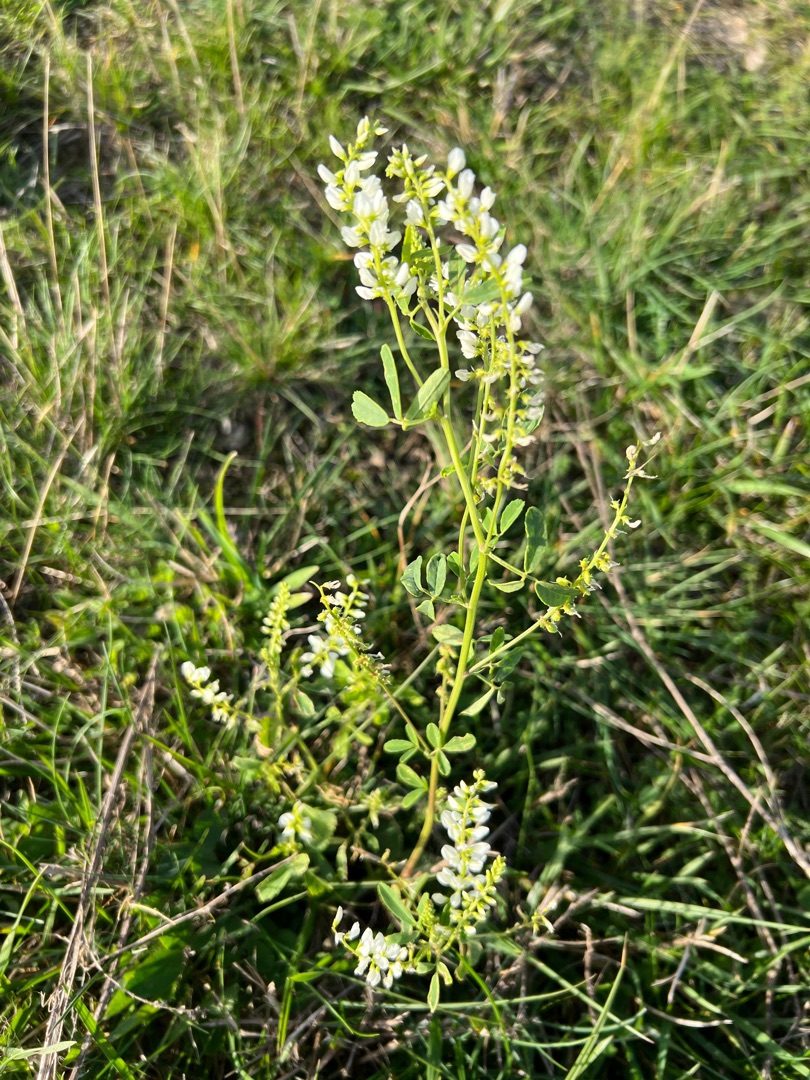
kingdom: Plantae
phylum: Tracheophyta
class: Magnoliopsida
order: Fabales
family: Fabaceae
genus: Melilotus
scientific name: Melilotus albus
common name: Hvid stenkløver
